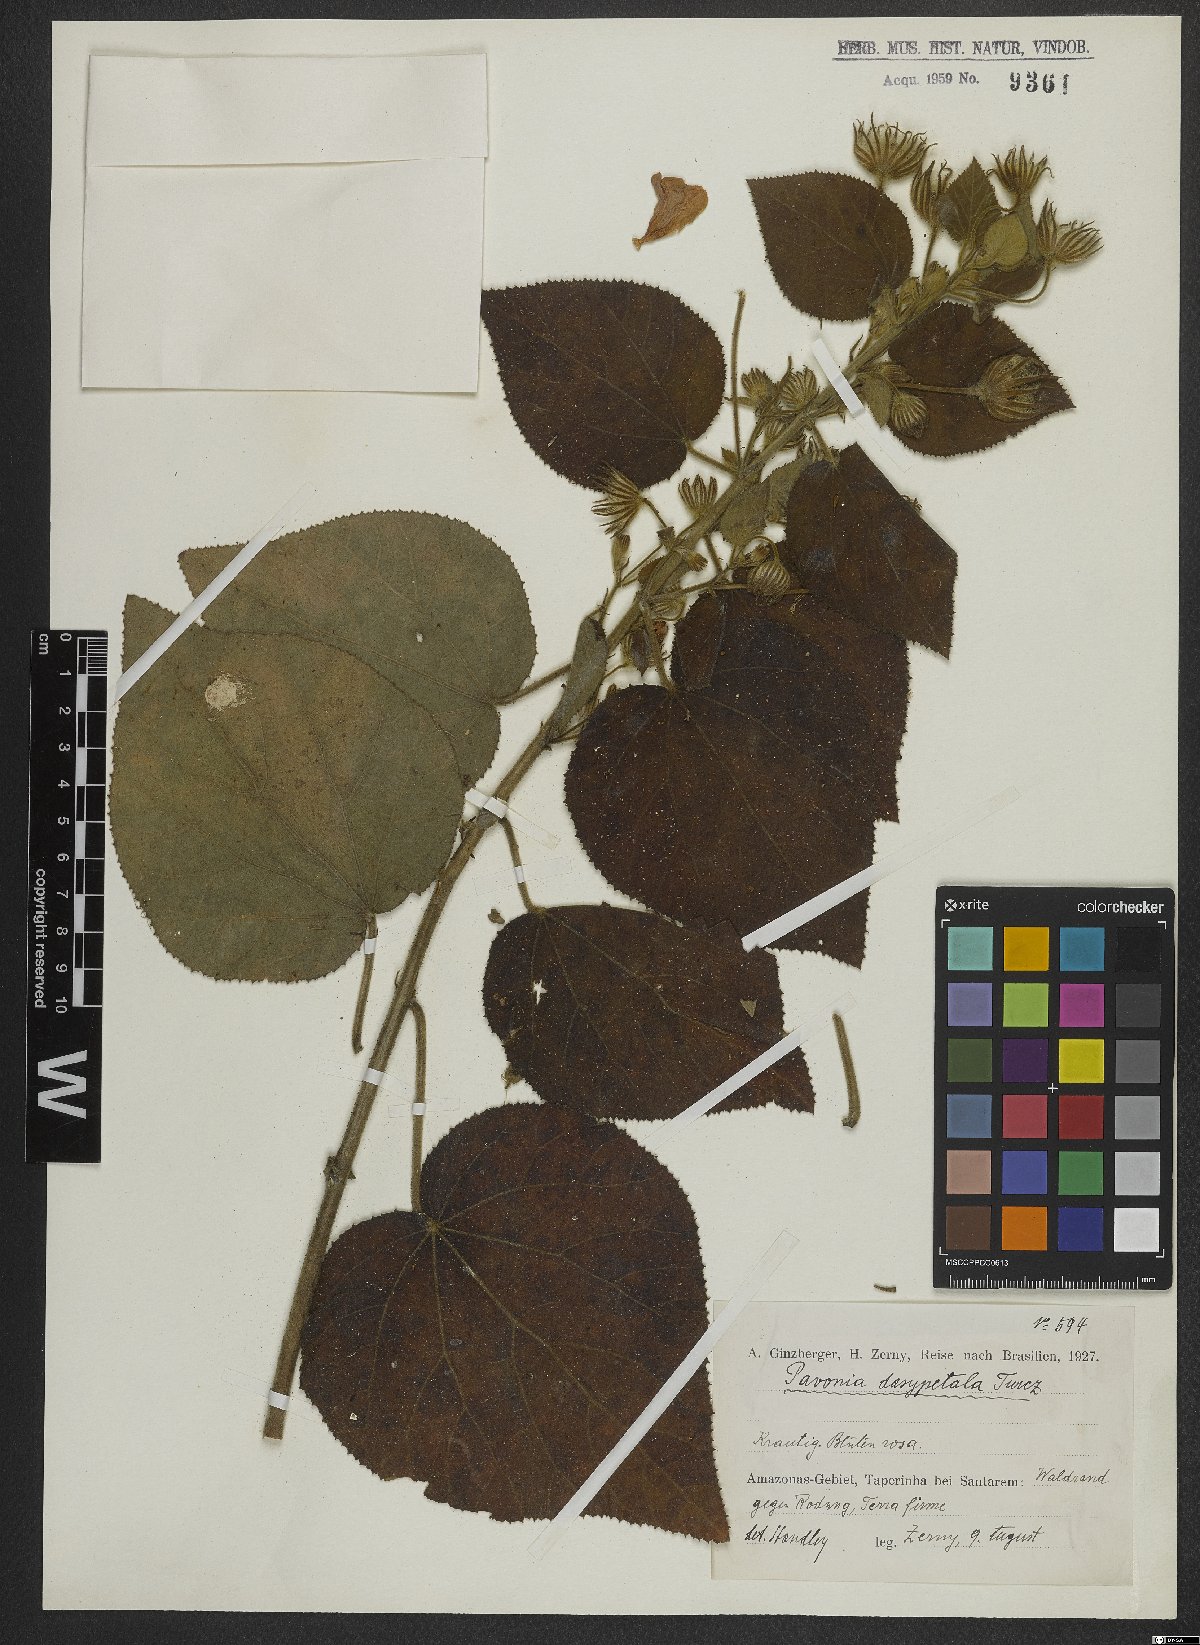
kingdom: Plantae
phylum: Tracheophyta
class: Magnoliopsida
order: Malvales
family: Malvaceae
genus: Pavonia
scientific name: Pavonia dasypetala
